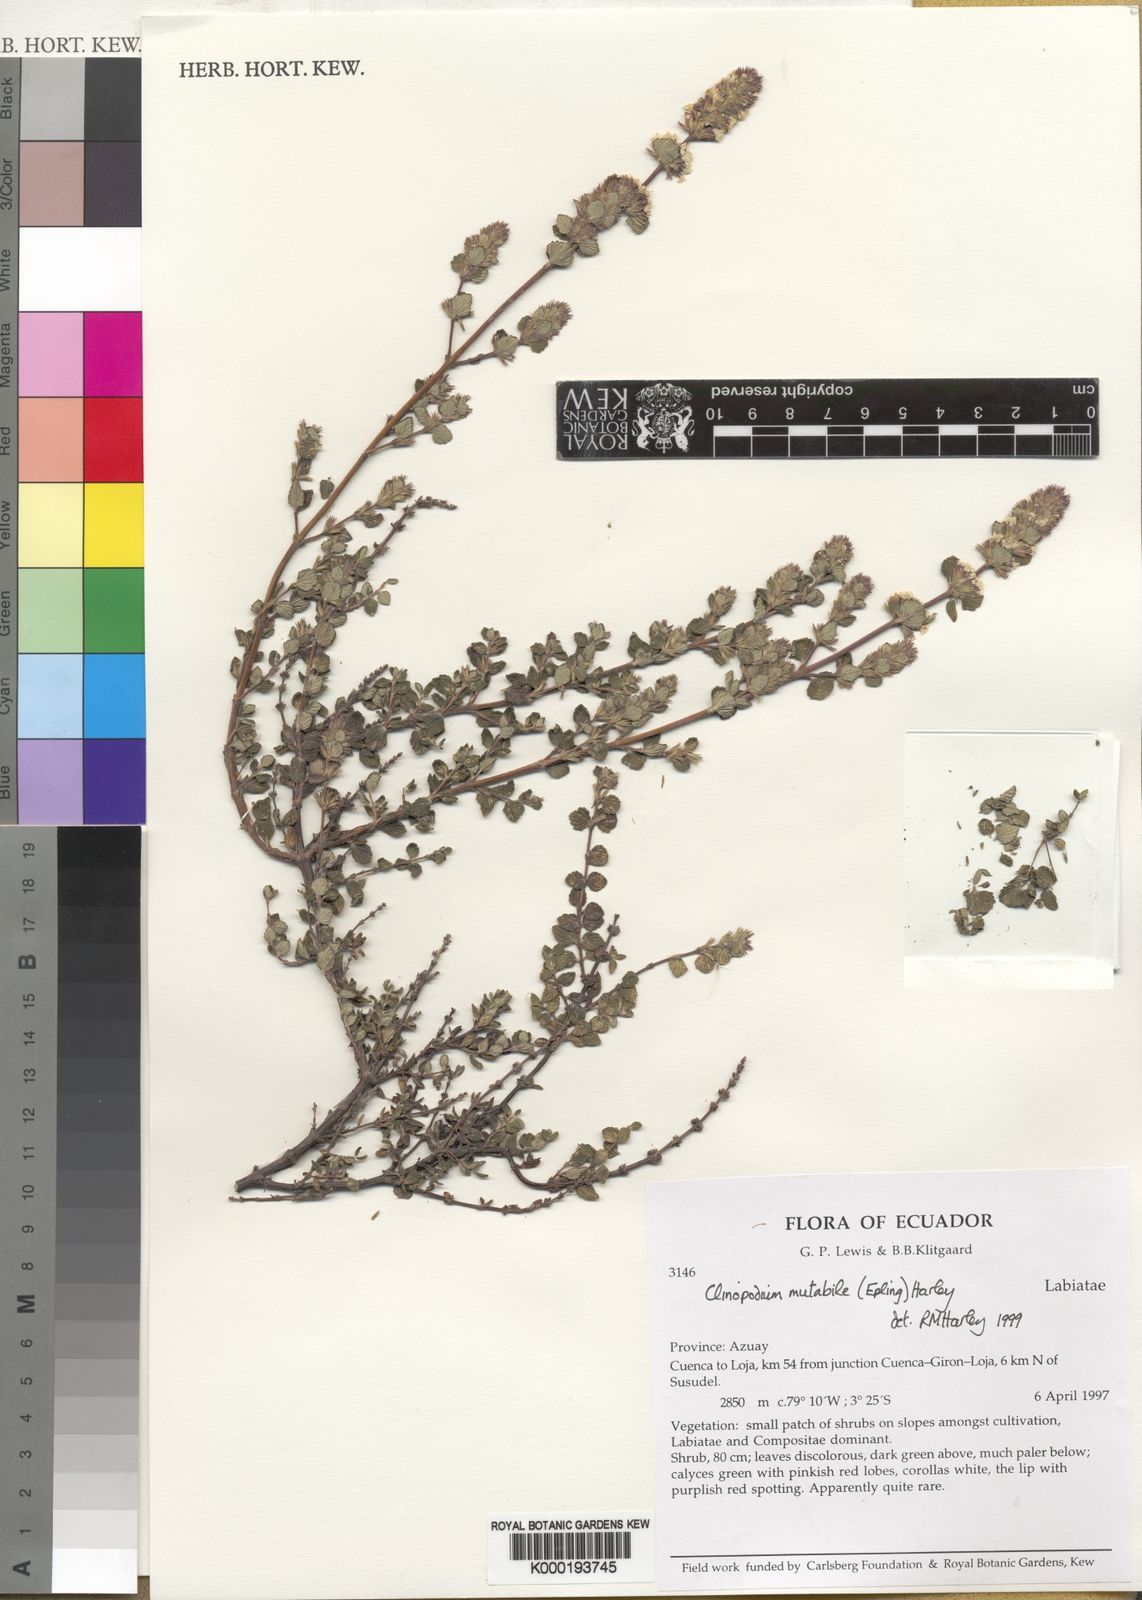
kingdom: Plantae
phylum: Tracheophyta
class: Magnoliopsida
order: Lamiales
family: Lamiaceae
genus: Clinopodium
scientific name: Clinopodium mutabile
